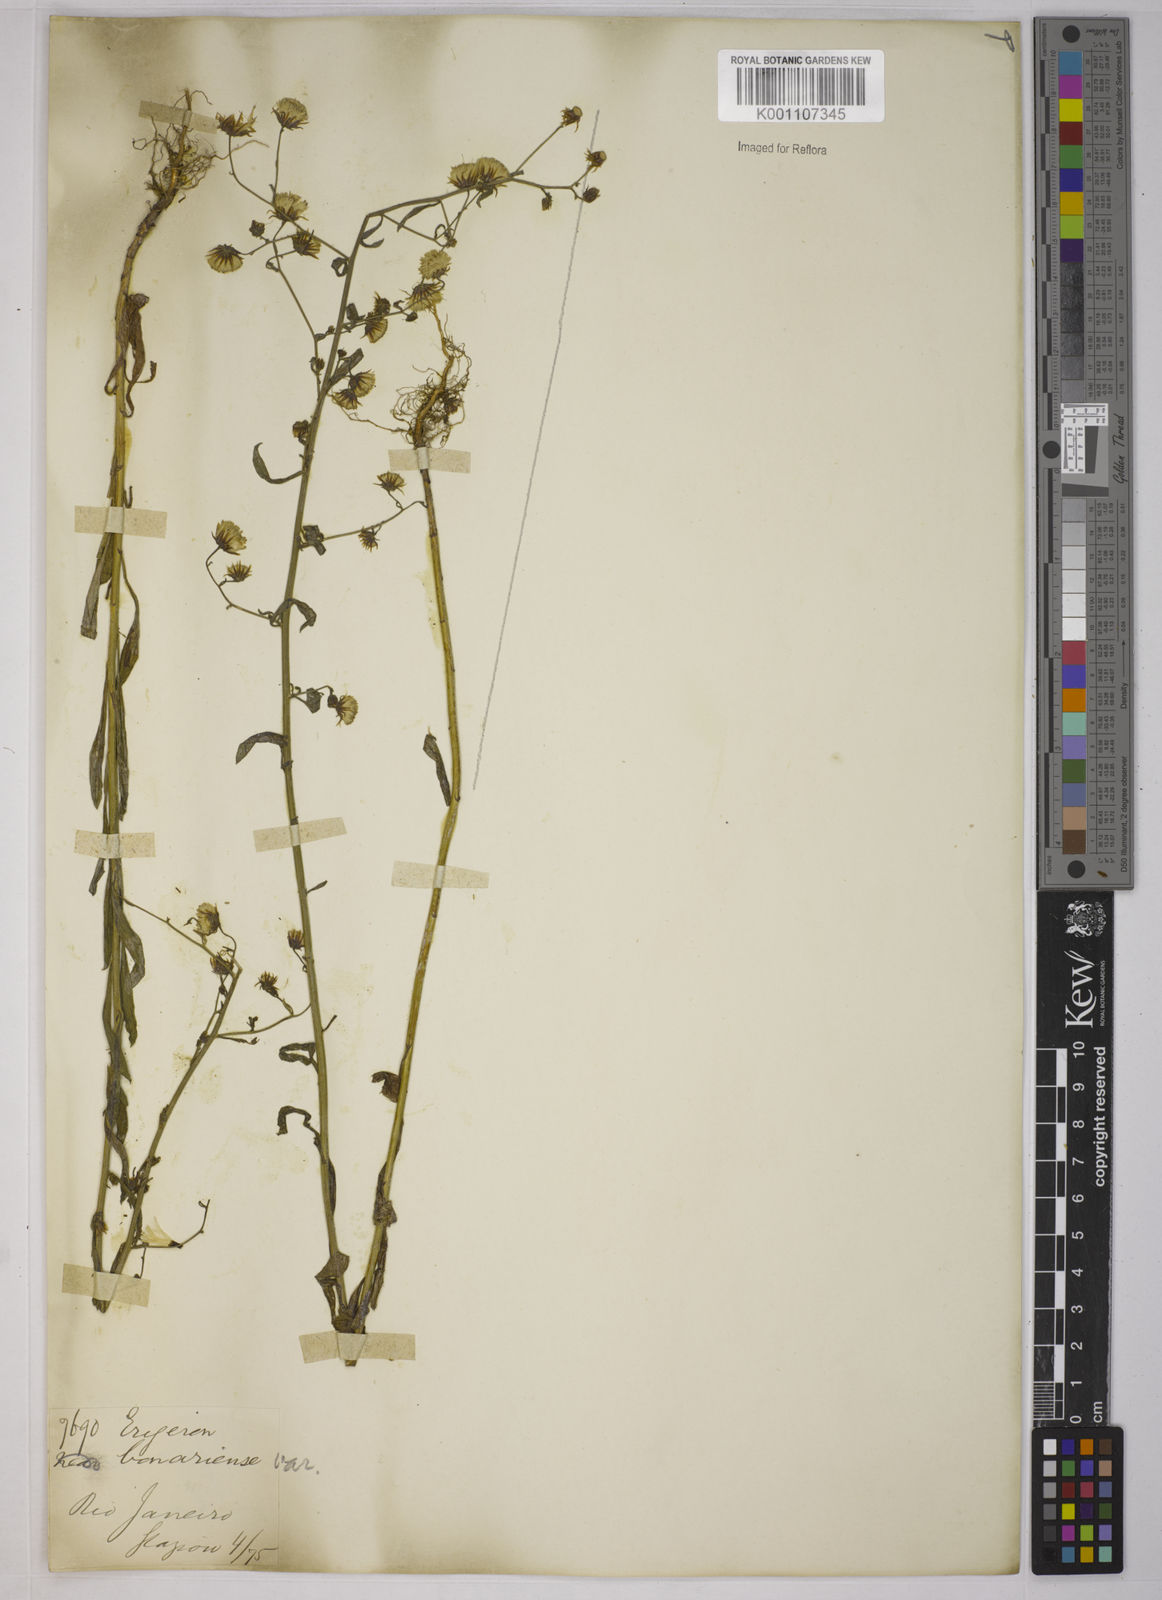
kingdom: Plantae
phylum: Tracheophyta
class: Magnoliopsida
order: Asterales
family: Asteraceae
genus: Erigeron
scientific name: Erigeron floribundus
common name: Bilbao fleabane
